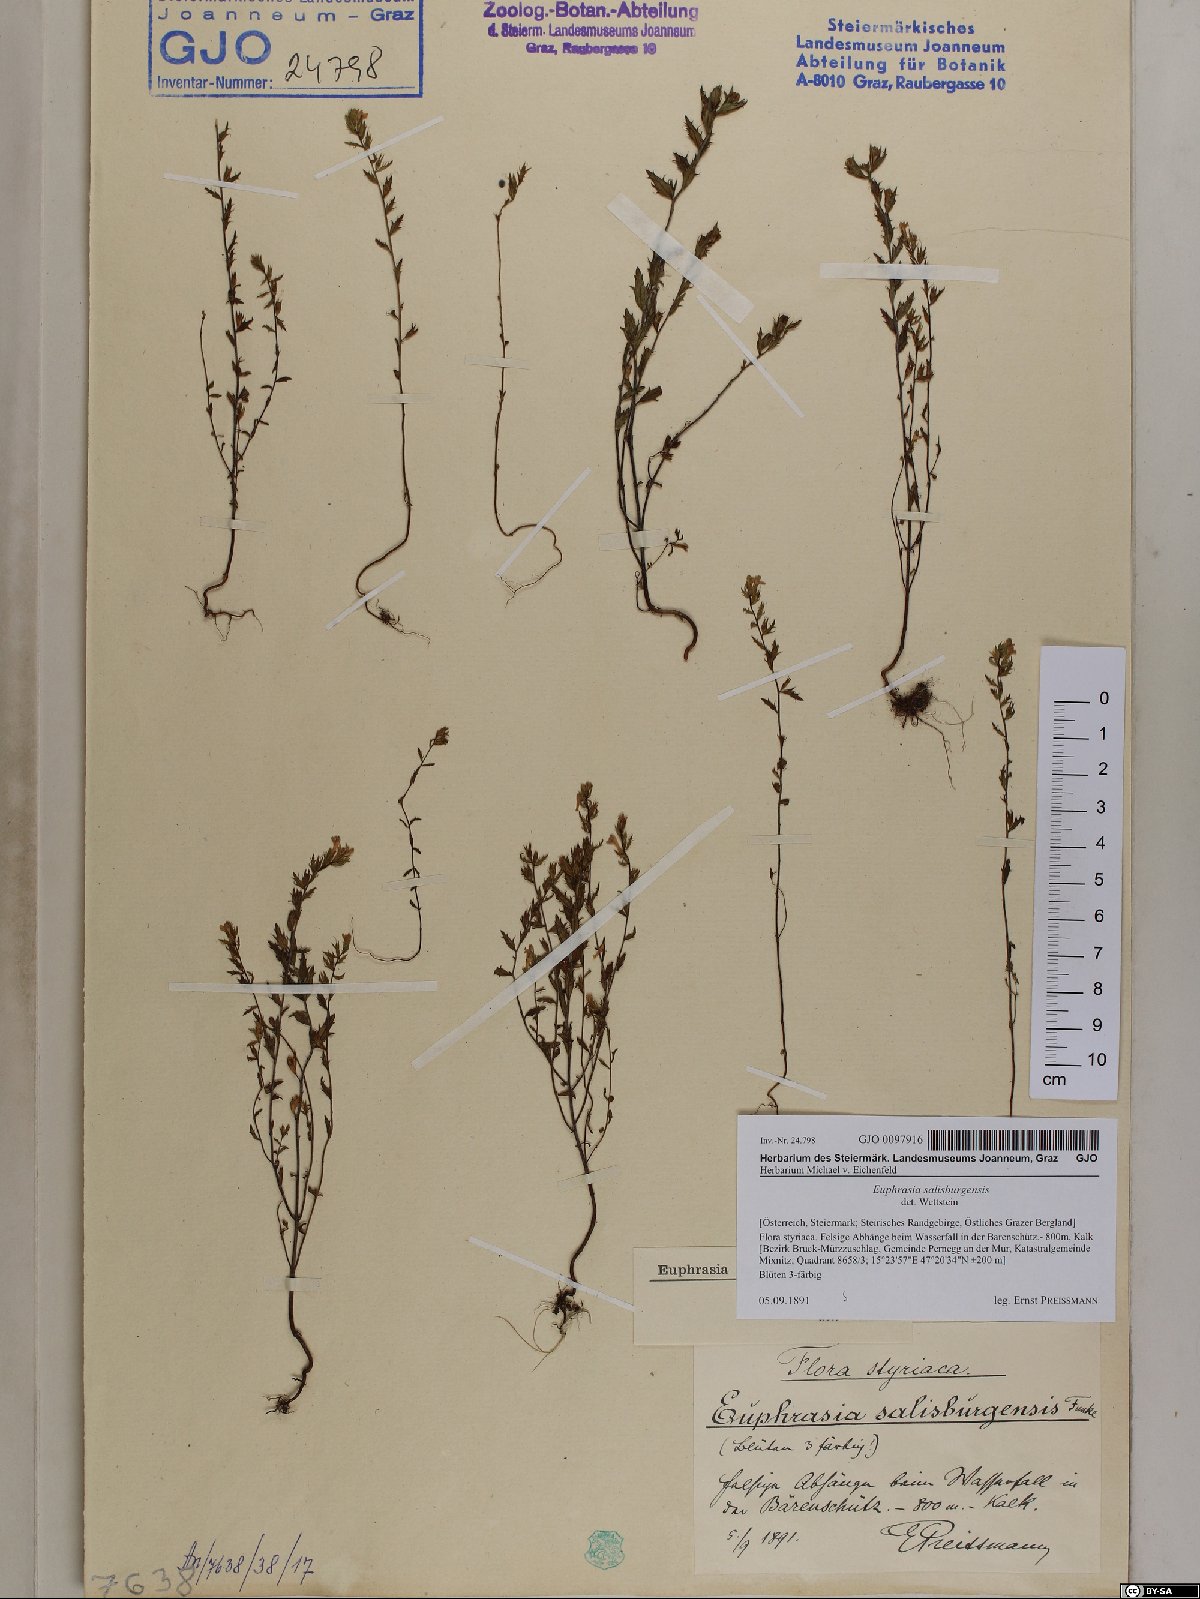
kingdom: Plantae
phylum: Tracheophyta
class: Magnoliopsida
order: Lamiales
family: Orobanchaceae
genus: Euphrasia
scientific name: Euphrasia salisburgensis
